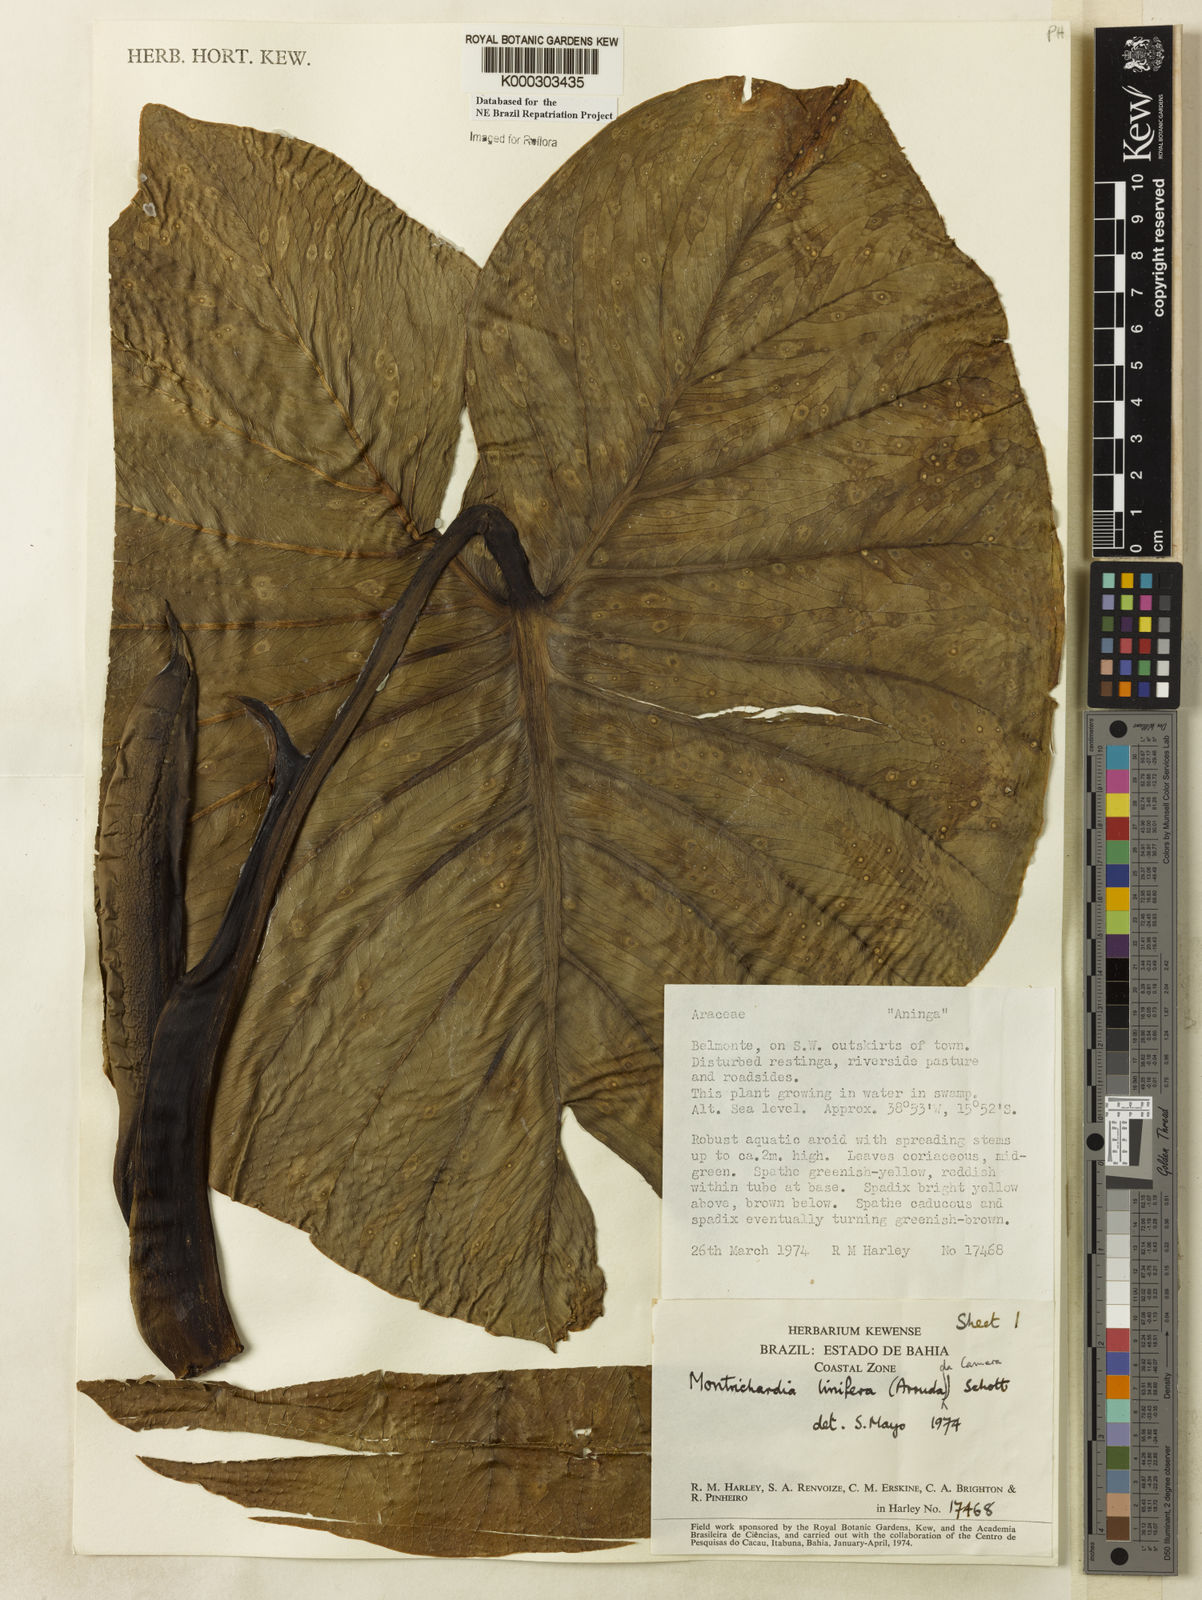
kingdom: Plantae
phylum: Tracheophyta
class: Liliopsida
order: Alismatales
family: Araceae
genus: Montrichardia
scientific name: Montrichardia linifera
